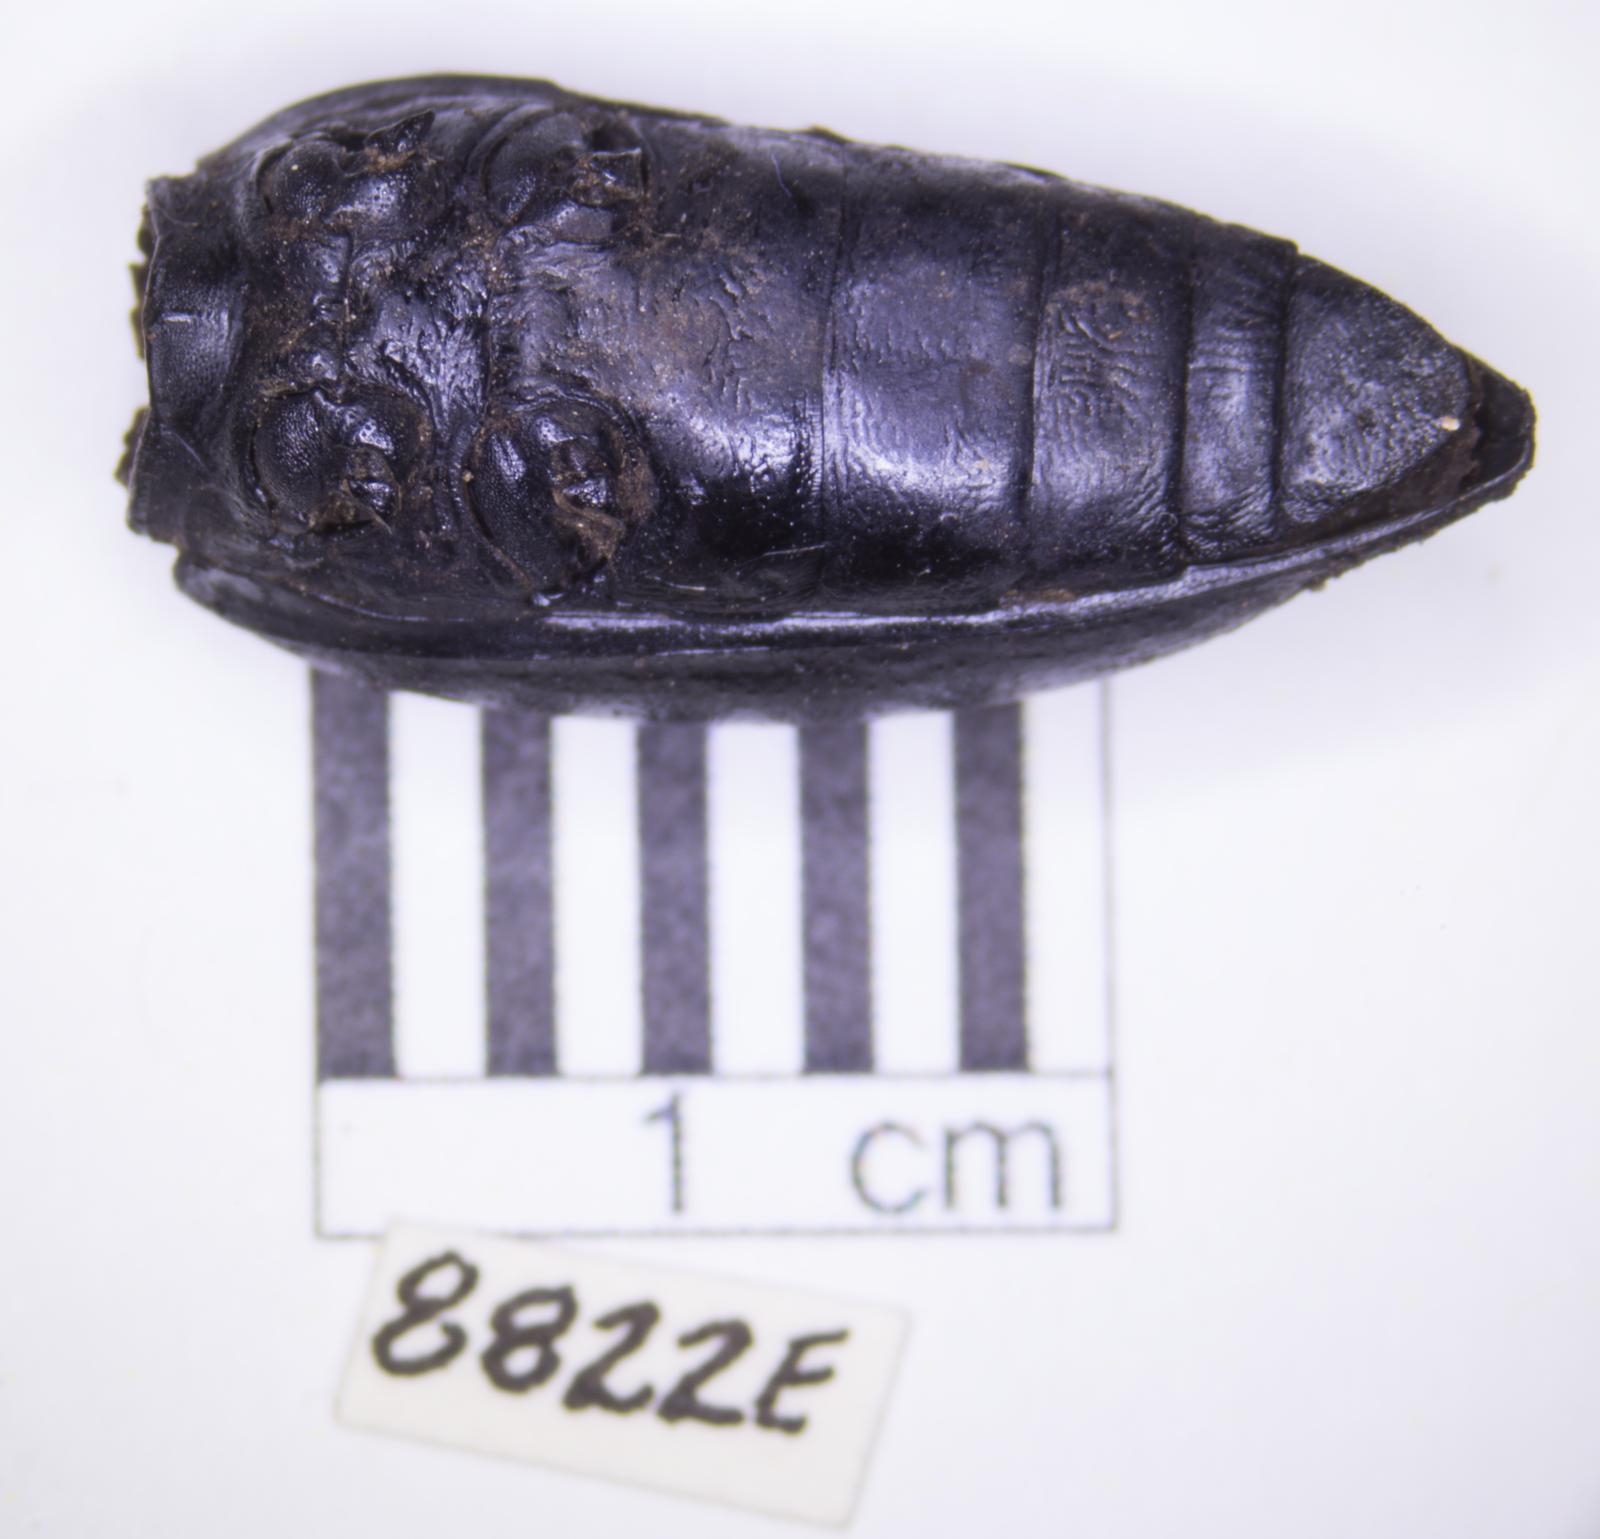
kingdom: Animalia
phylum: Arthropoda
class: Insecta
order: Coleoptera
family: Tenebrionidae
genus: Eleodes
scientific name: Eleodes acuticauda
